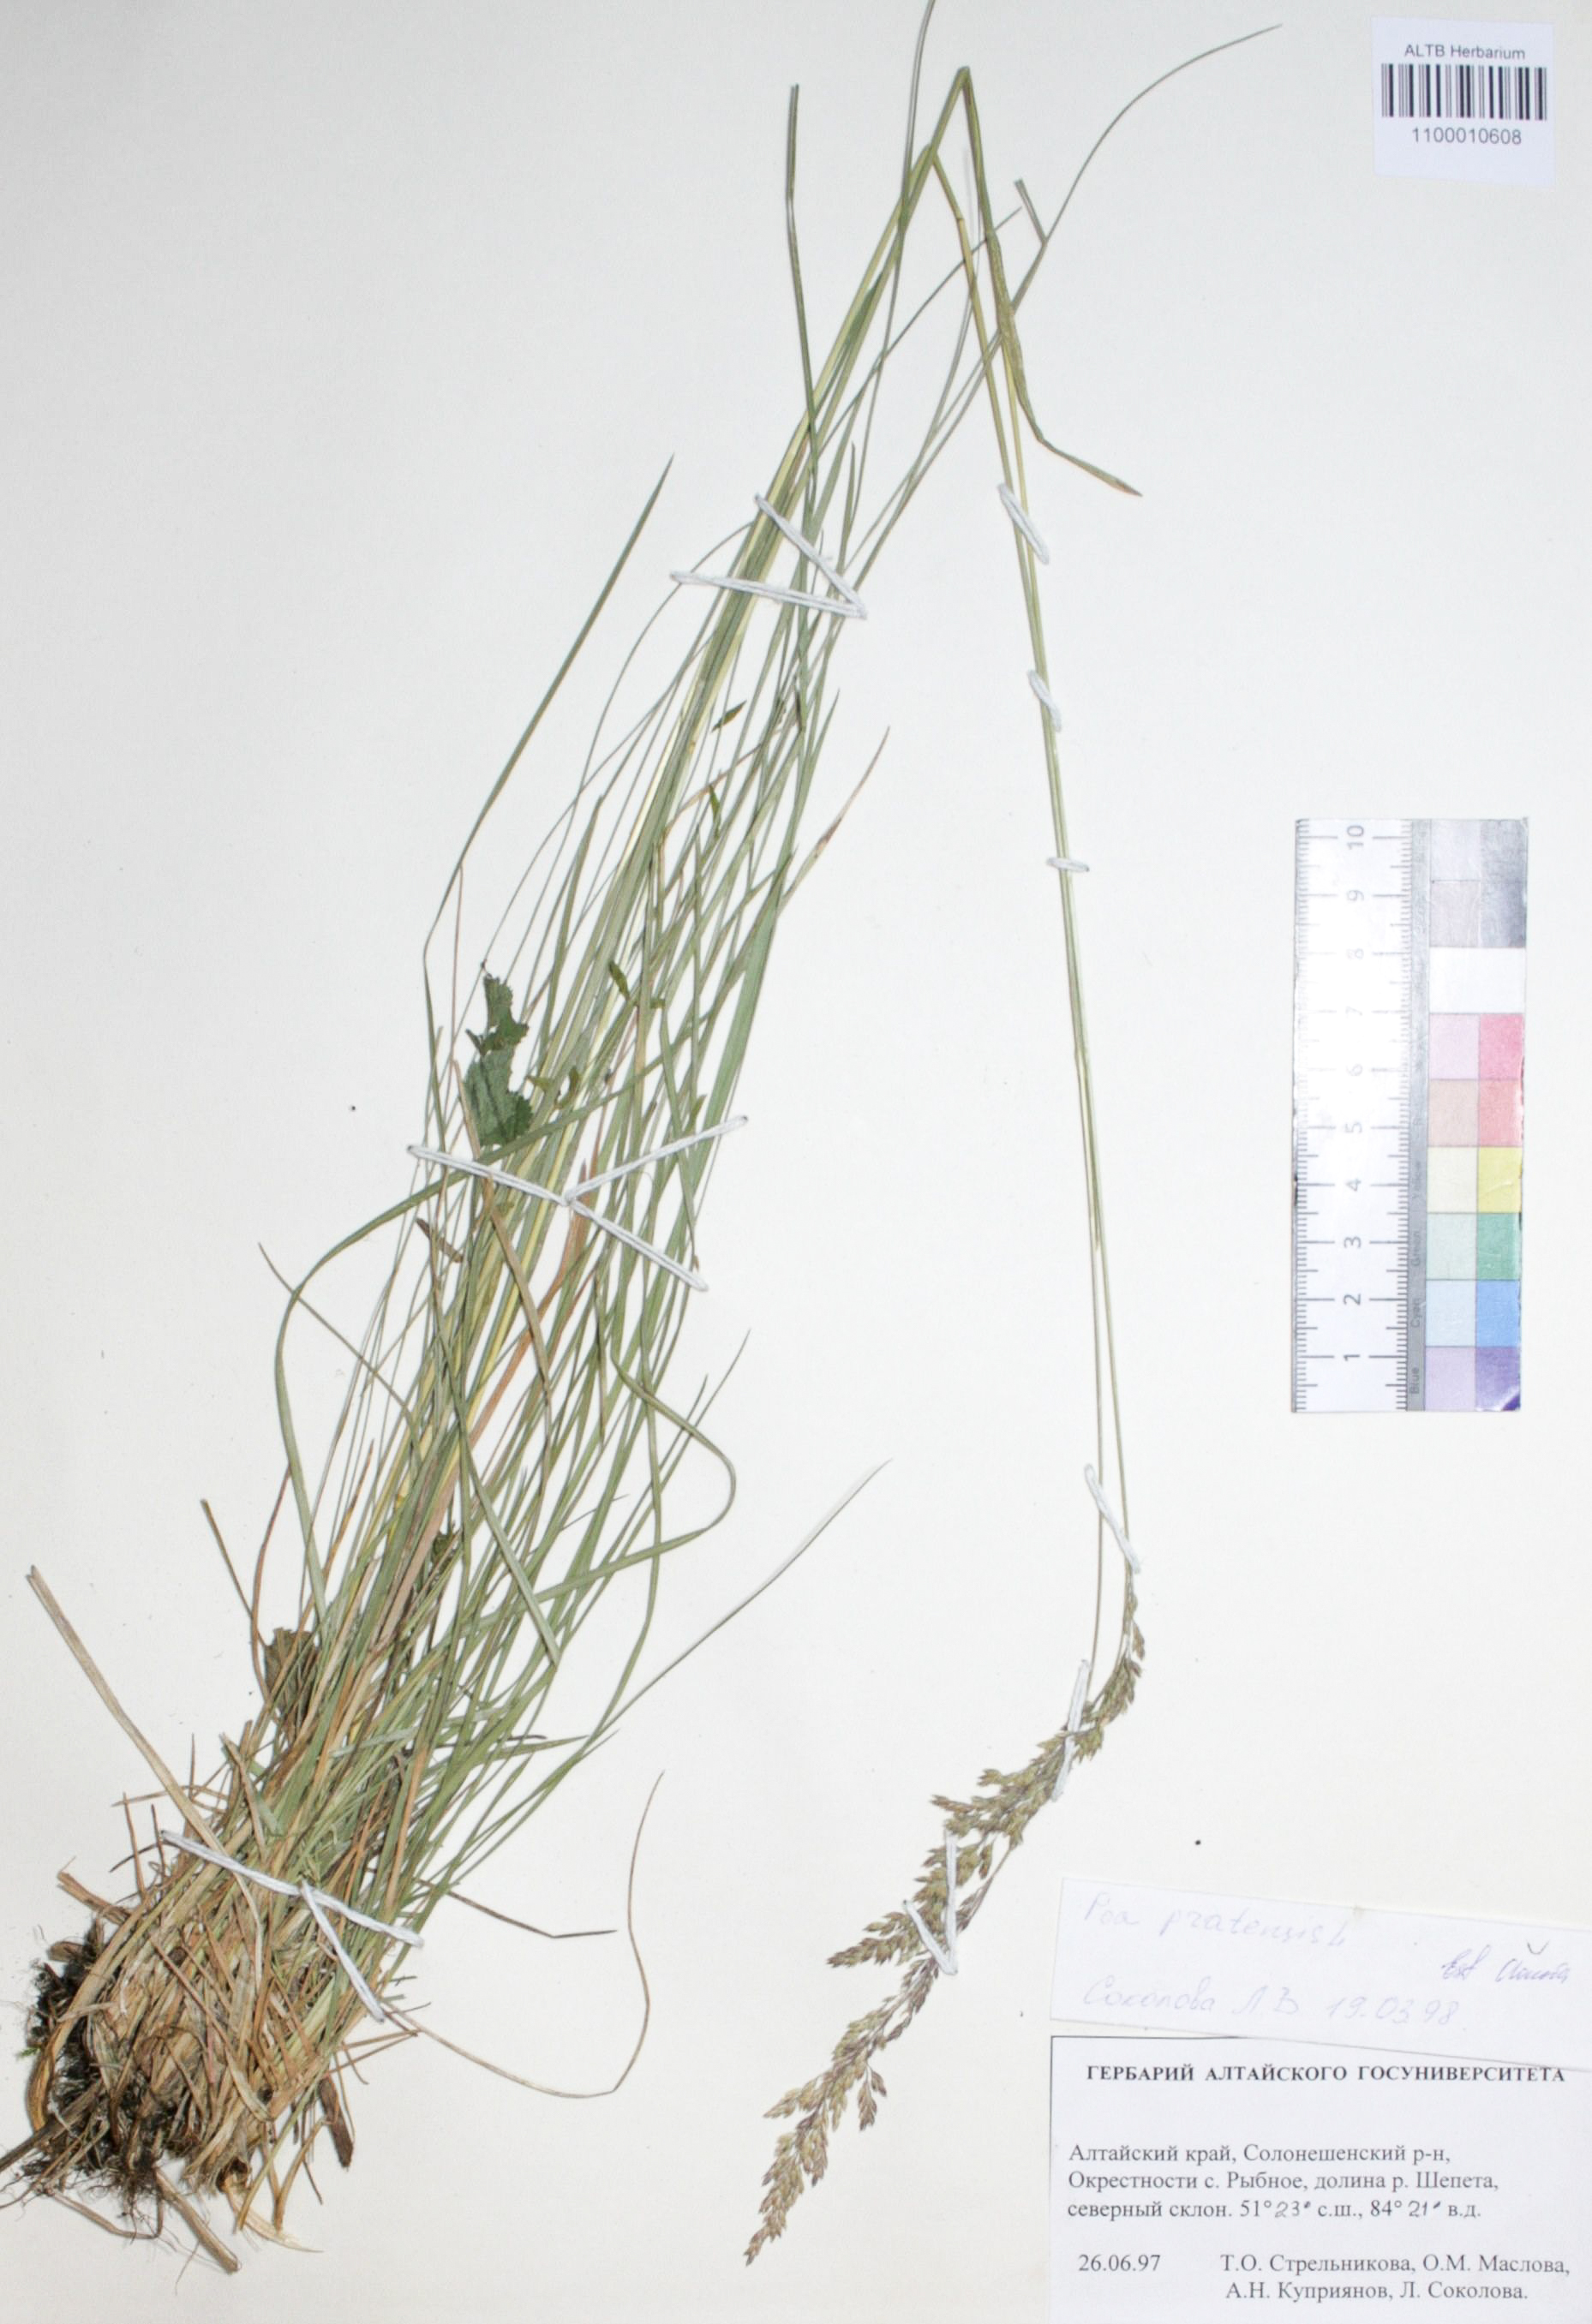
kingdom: Plantae
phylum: Tracheophyta
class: Liliopsida
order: Poales
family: Poaceae
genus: Poa
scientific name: Poa pratensis
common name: Kentucky bluegrass
